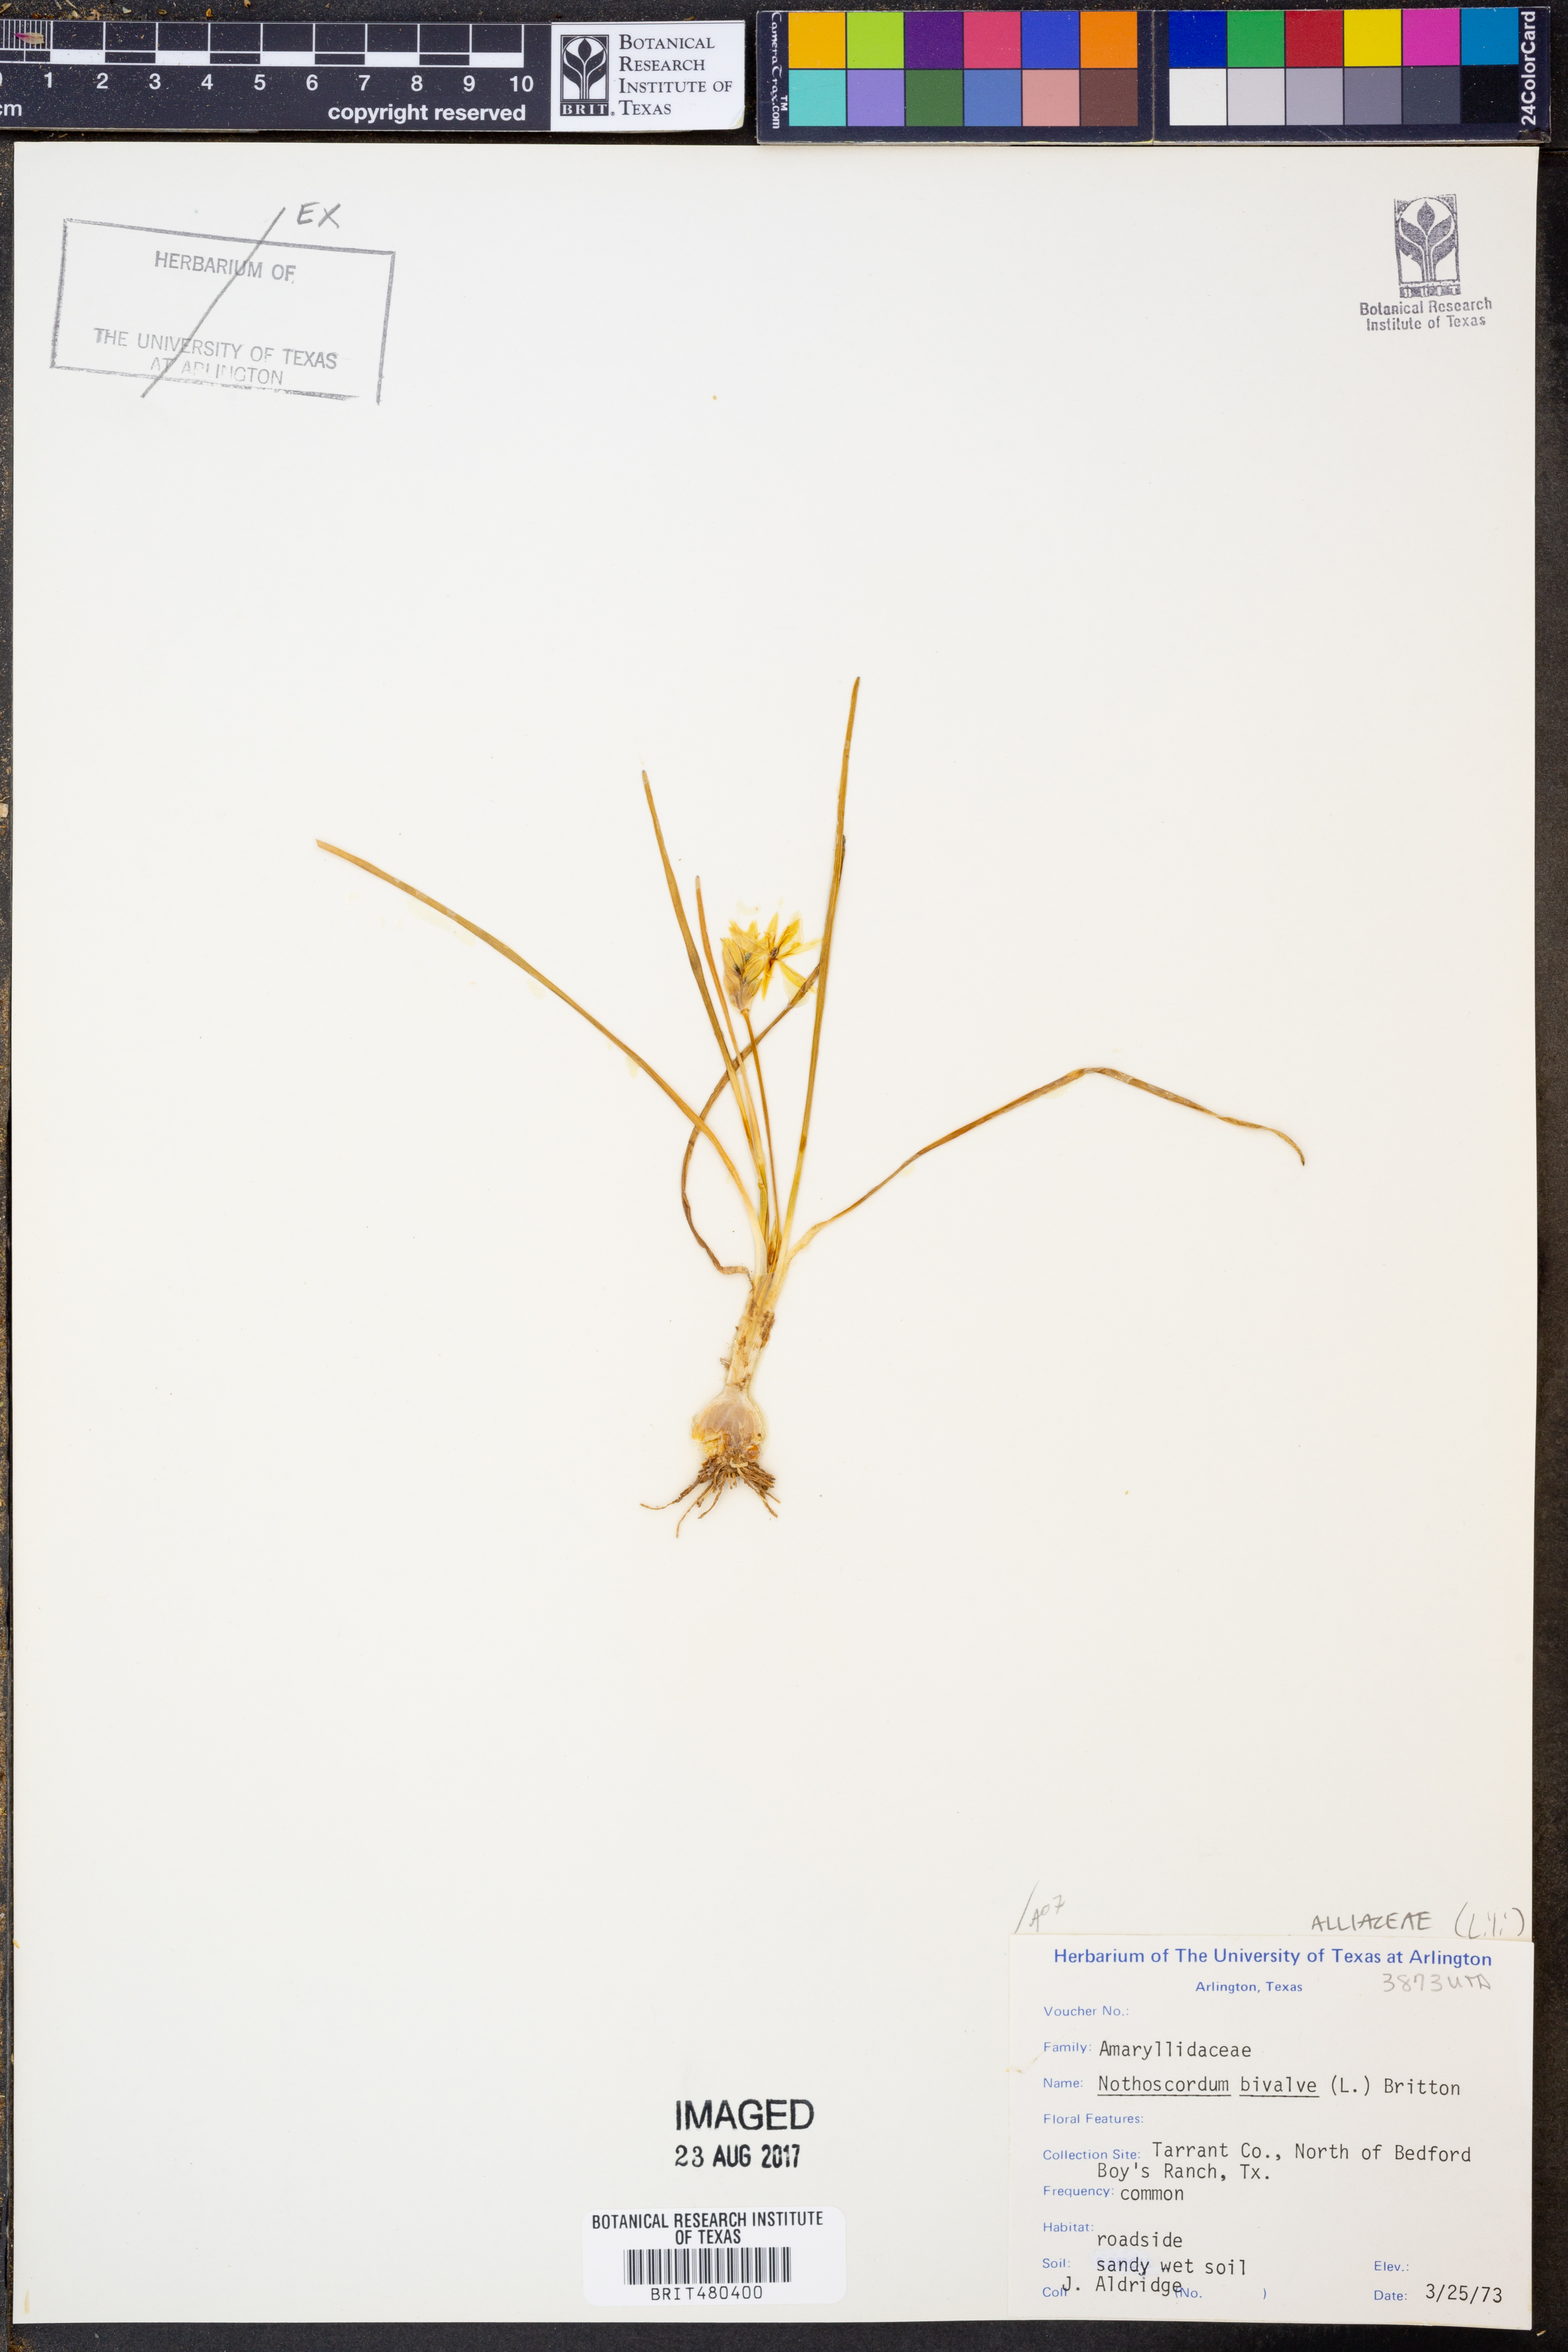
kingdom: Plantae
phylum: Tracheophyta
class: Liliopsida
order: Asparagales
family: Amaryllidaceae
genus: Nothoscordum
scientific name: Nothoscordum bivalve
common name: Crow-poison
